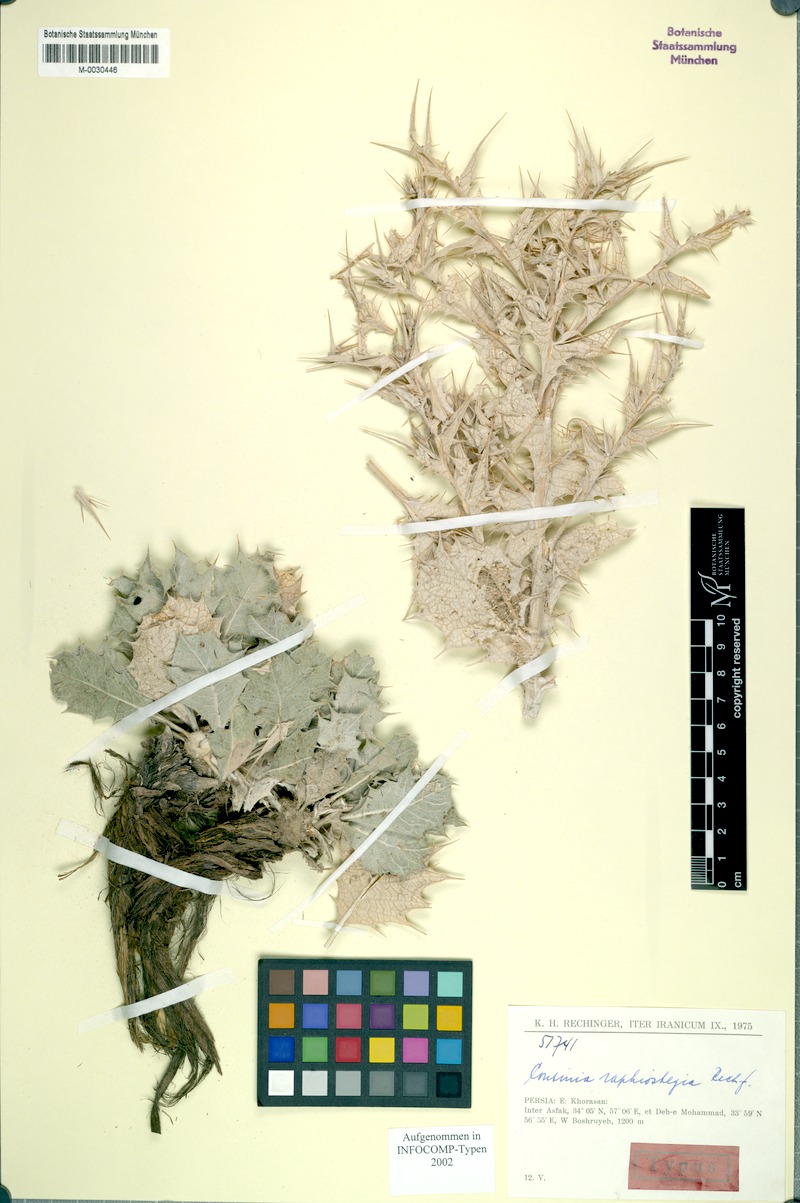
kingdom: Plantae
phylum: Tracheophyta
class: Magnoliopsida
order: Asterales
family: Asteraceae
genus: Cousinia
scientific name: Cousinia raphiostegia
